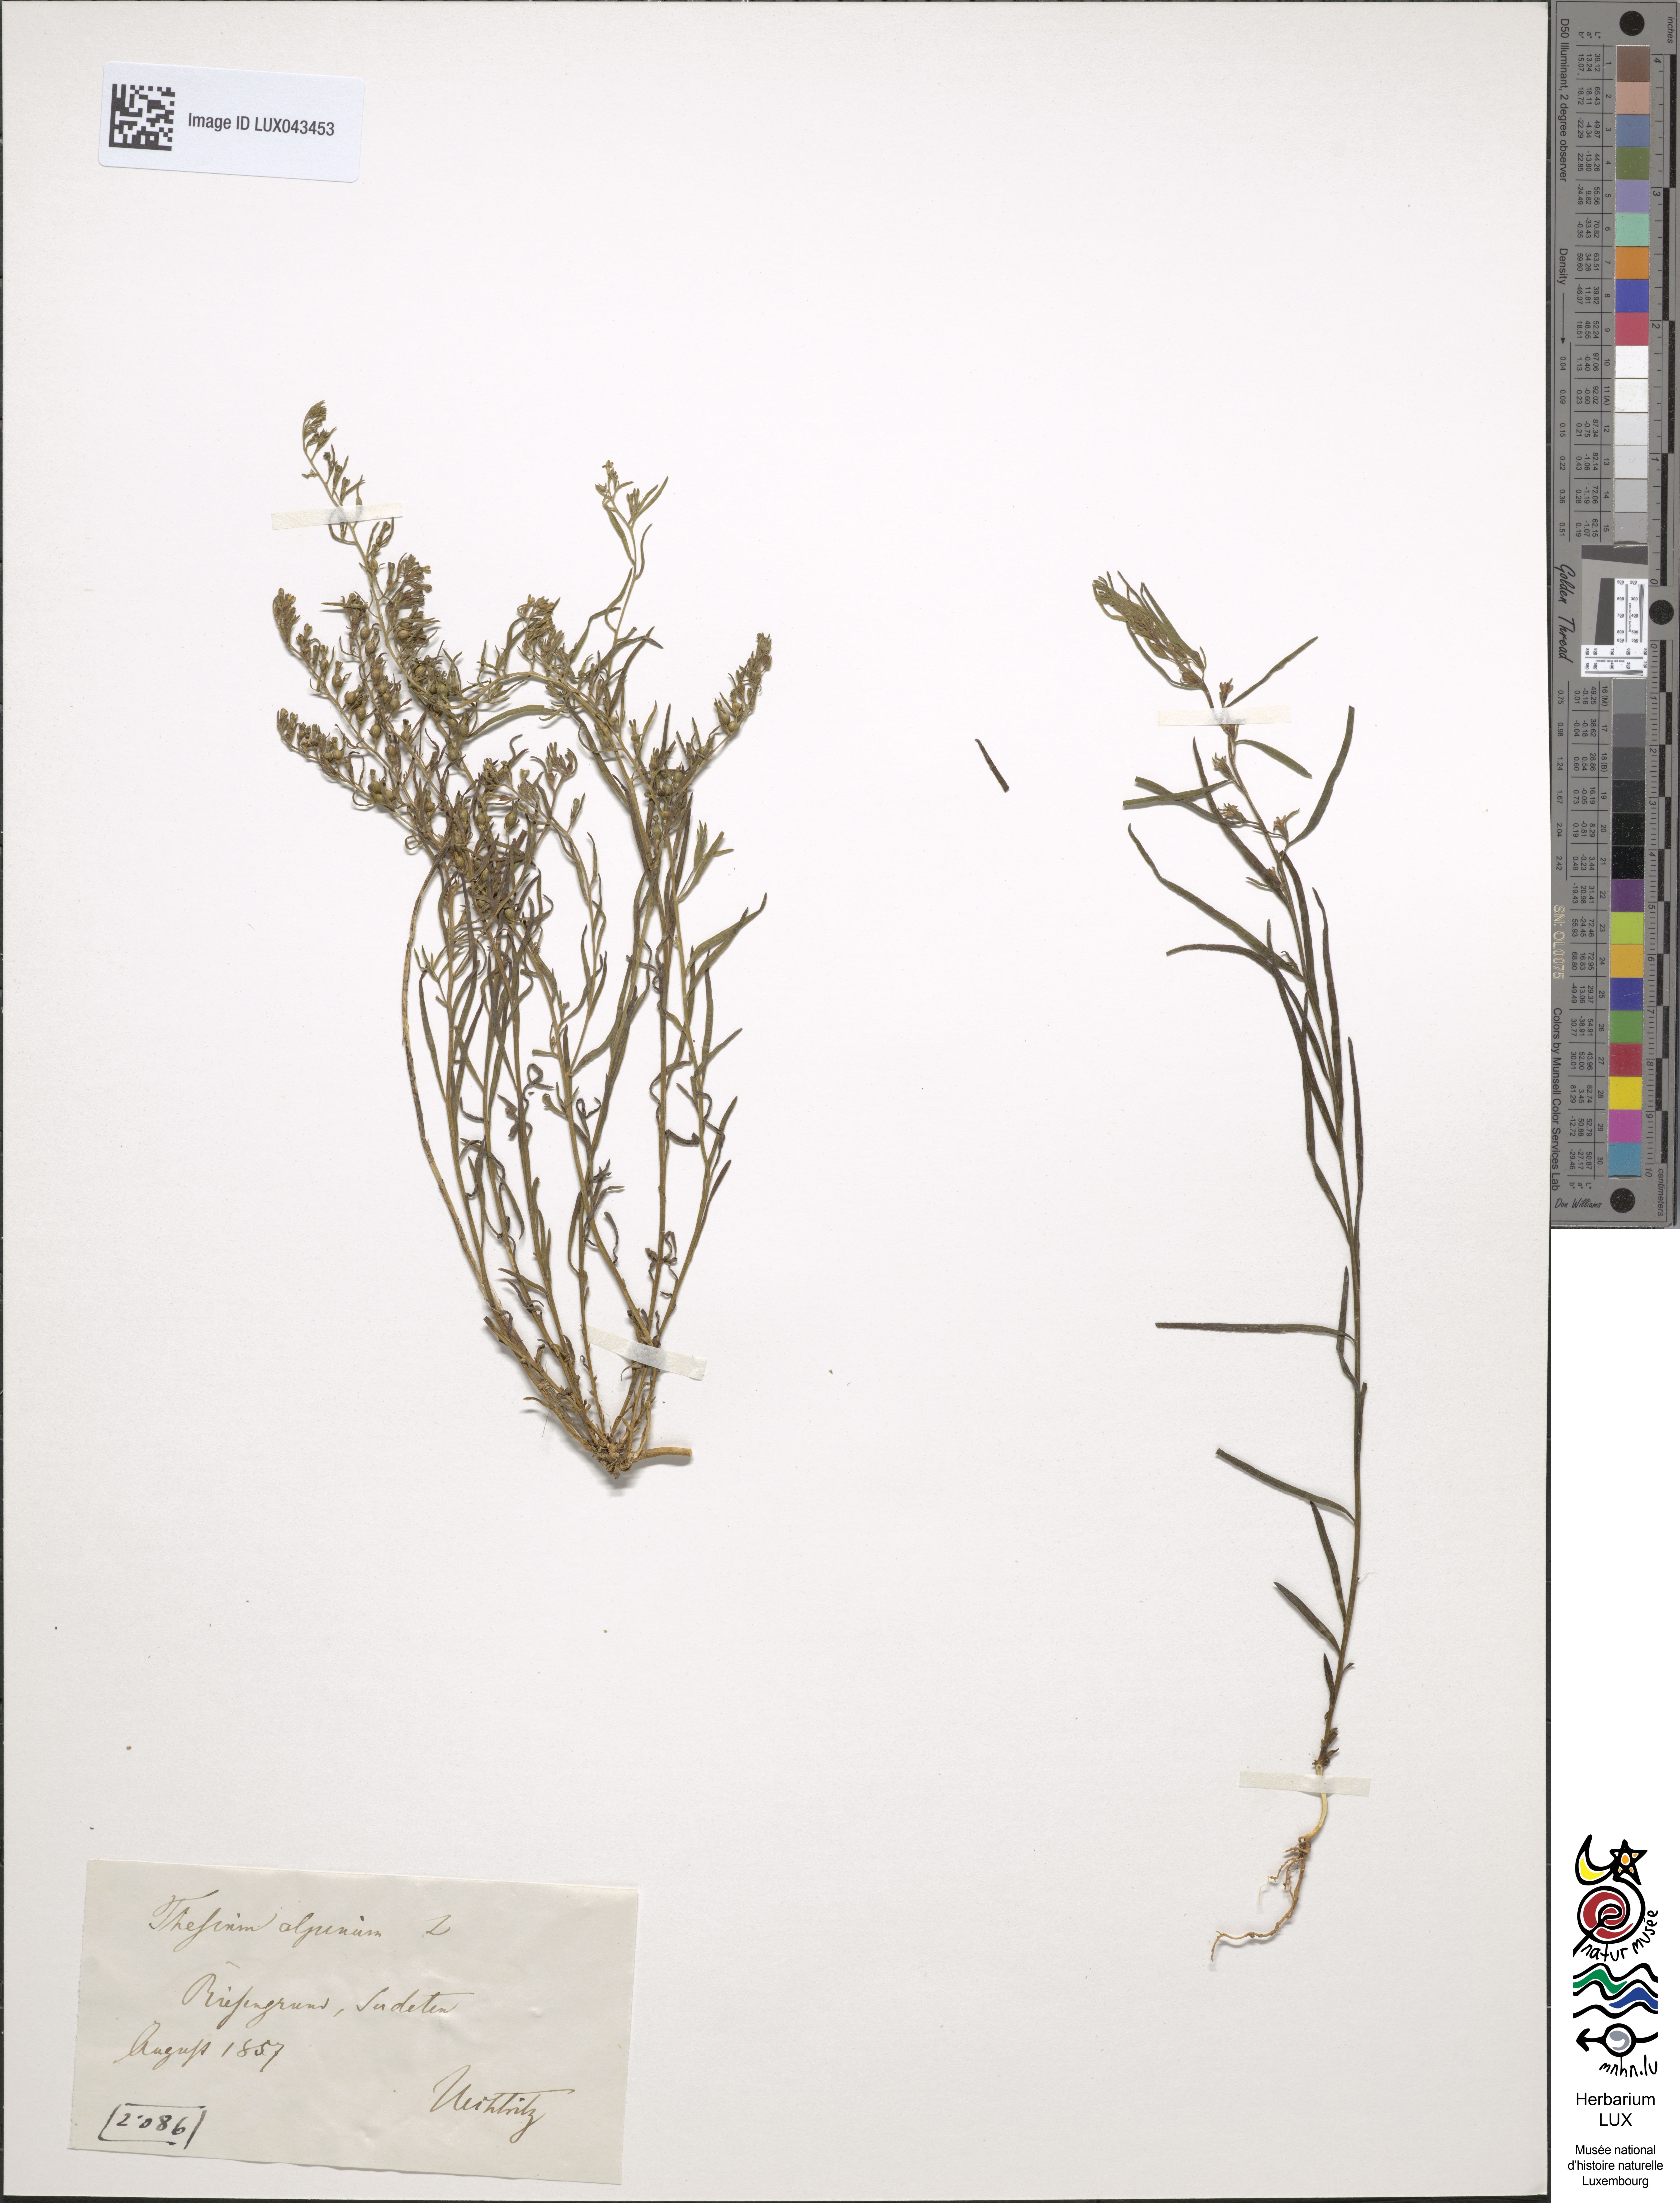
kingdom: Plantae
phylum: Tracheophyta
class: Magnoliopsida
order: Santalales
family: Thesiaceae
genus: Thesium
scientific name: Thesium alpinum
